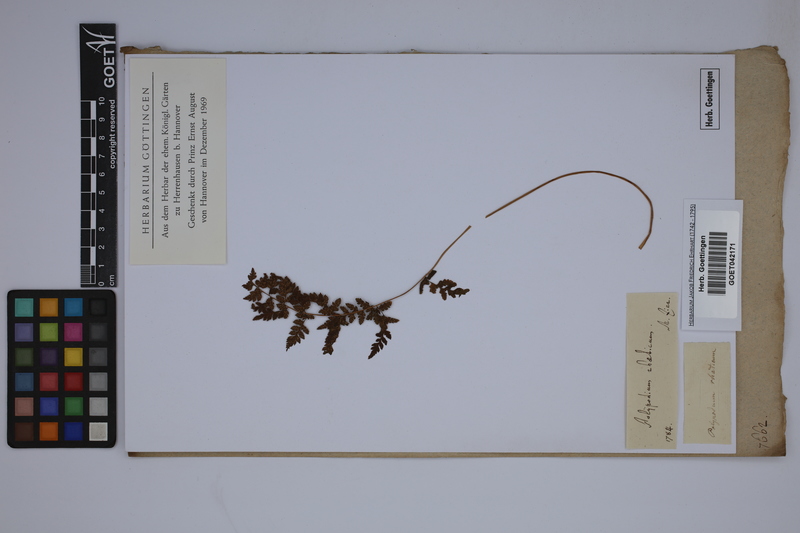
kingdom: Plantae
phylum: Tracheophyta
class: Polypodiopsida
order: Polypodiales
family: Athyriaceae
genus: Athyrium
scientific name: Athyrium filix-femina
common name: Lady fern
